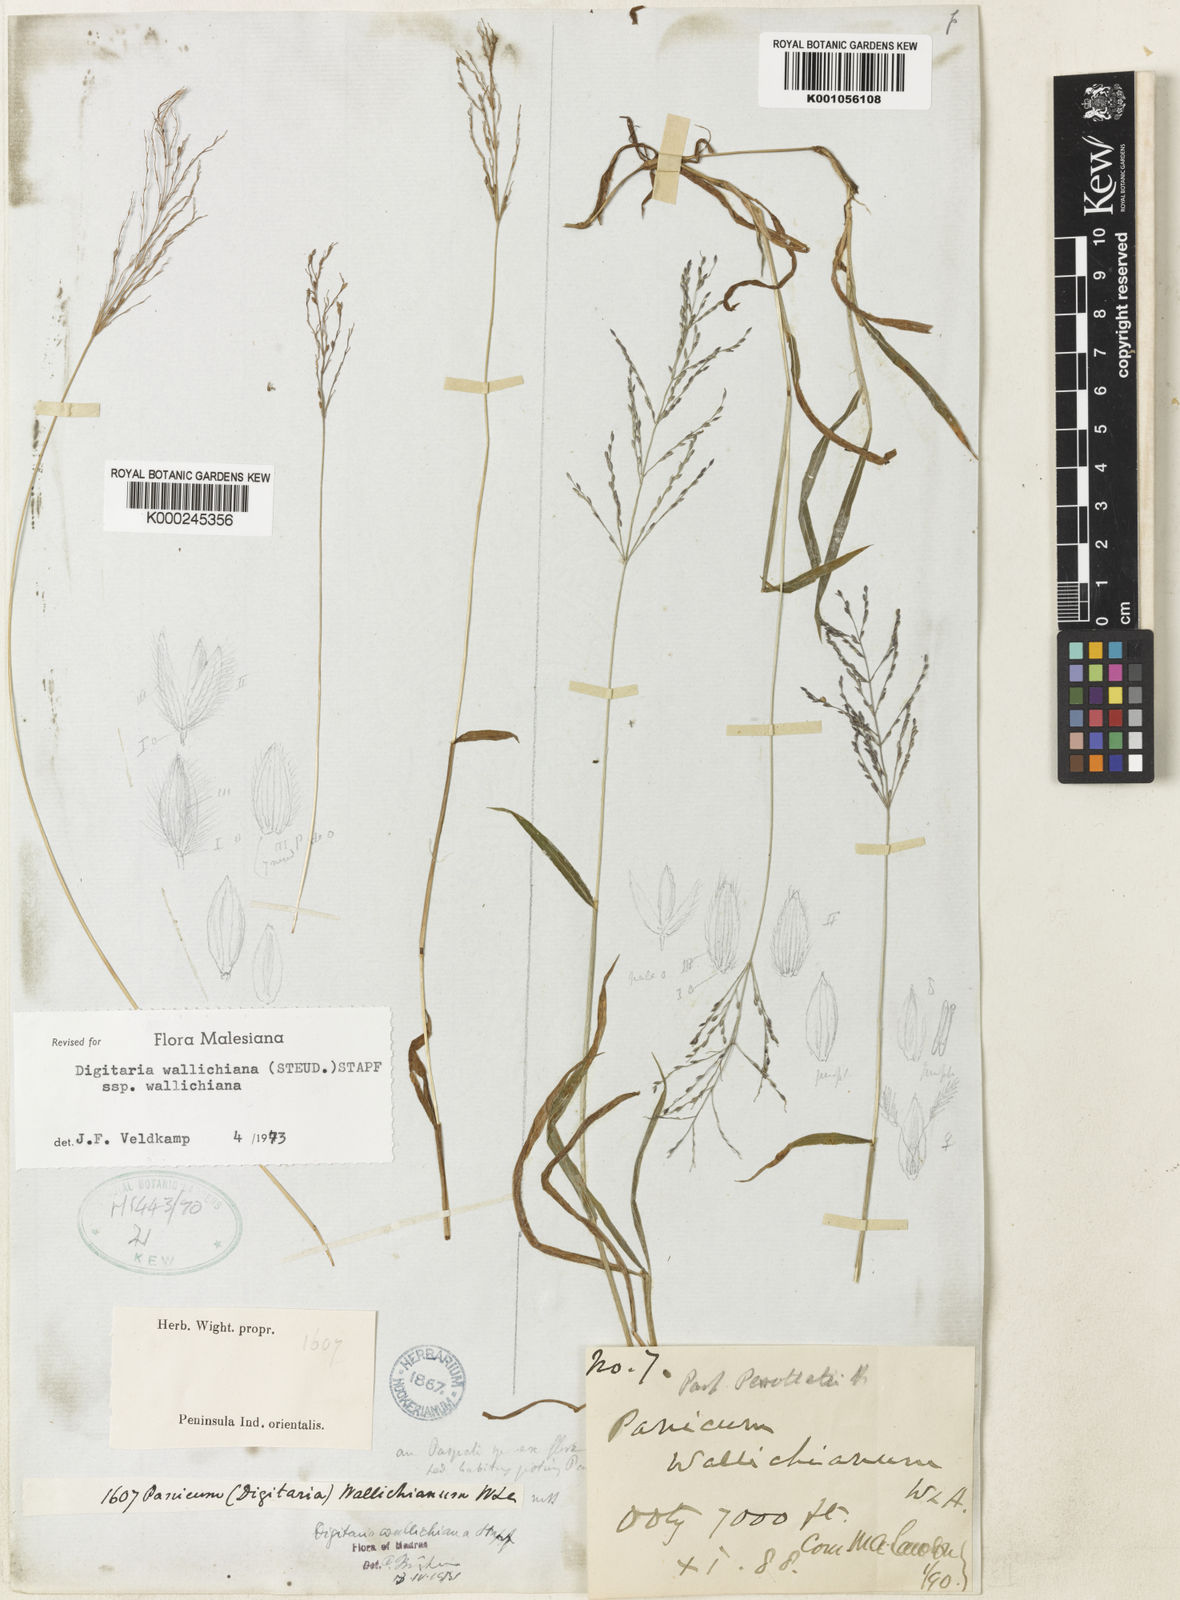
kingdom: Plantae
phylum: Tracheophyta
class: Liliopsida
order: Poales
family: Poaceae
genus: Digitaria
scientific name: Digitaria wallichiana
